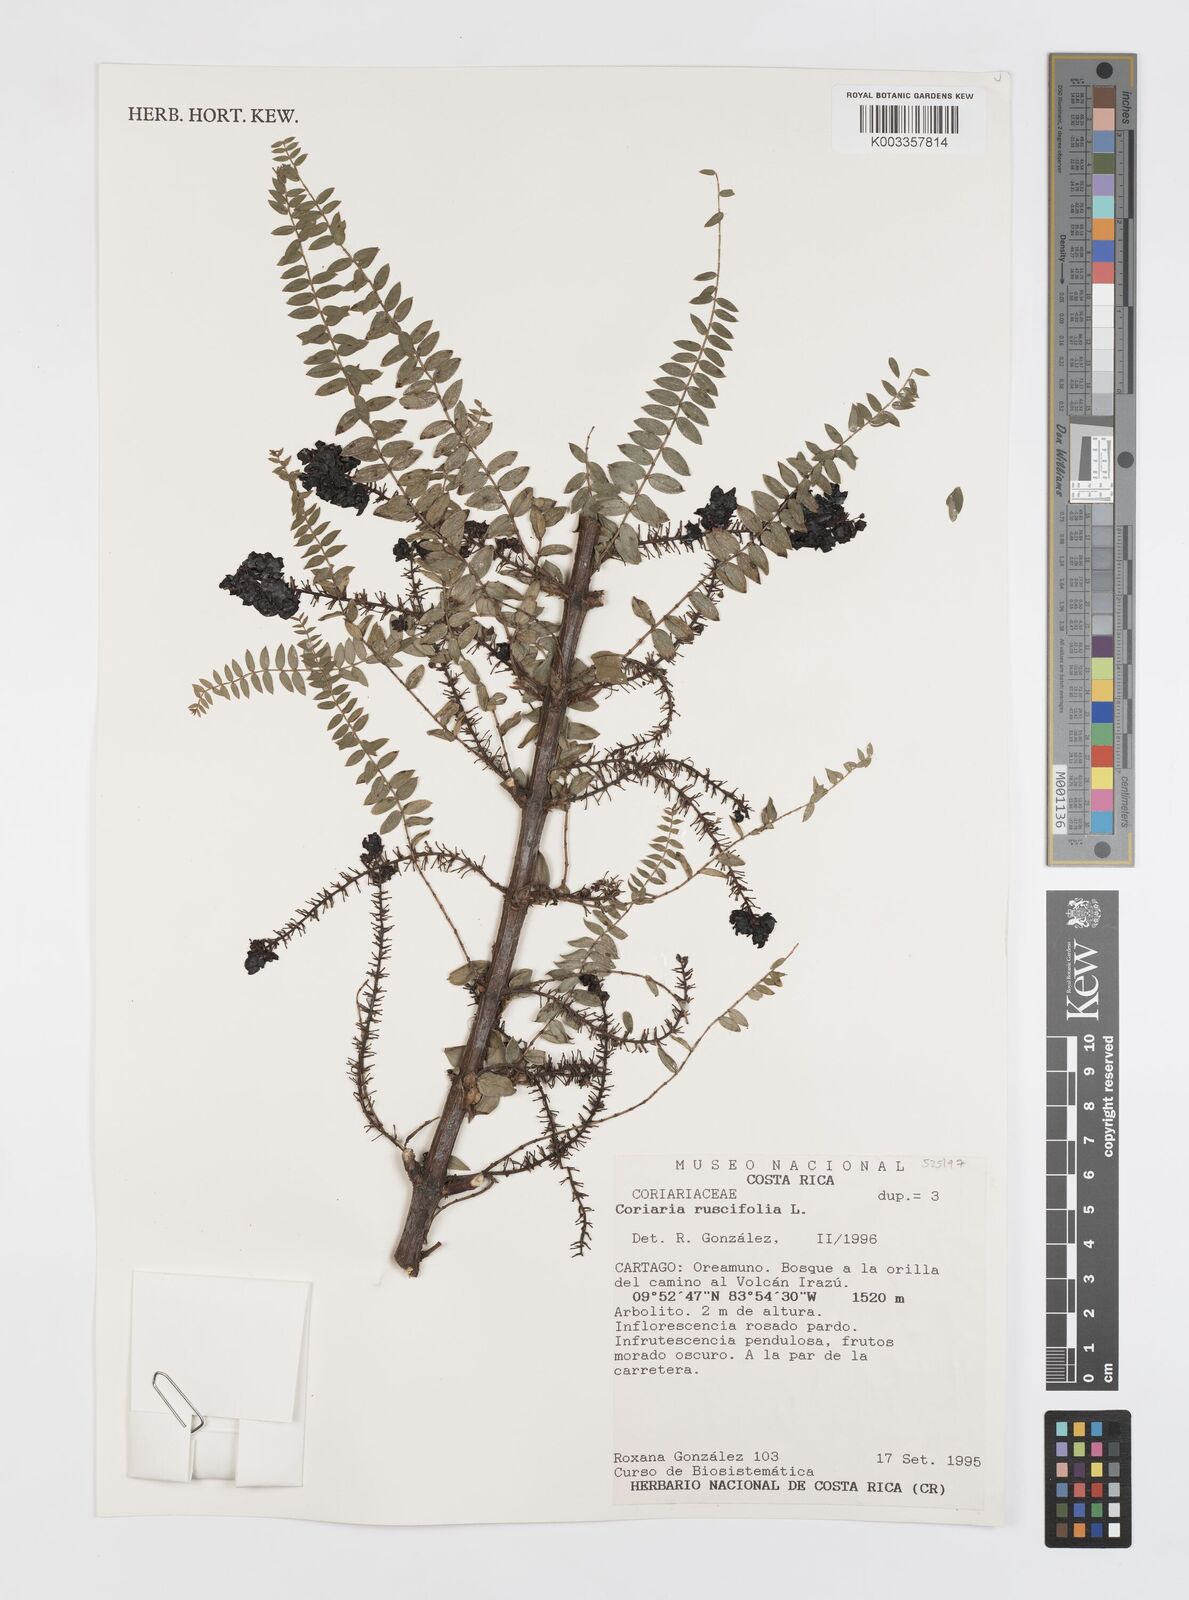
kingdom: Plantae
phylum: Tracheophyta
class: Magnoliopsida
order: Cucurbitales
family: Coriariaceae
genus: Coriaria
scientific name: Coriaria microphylla
